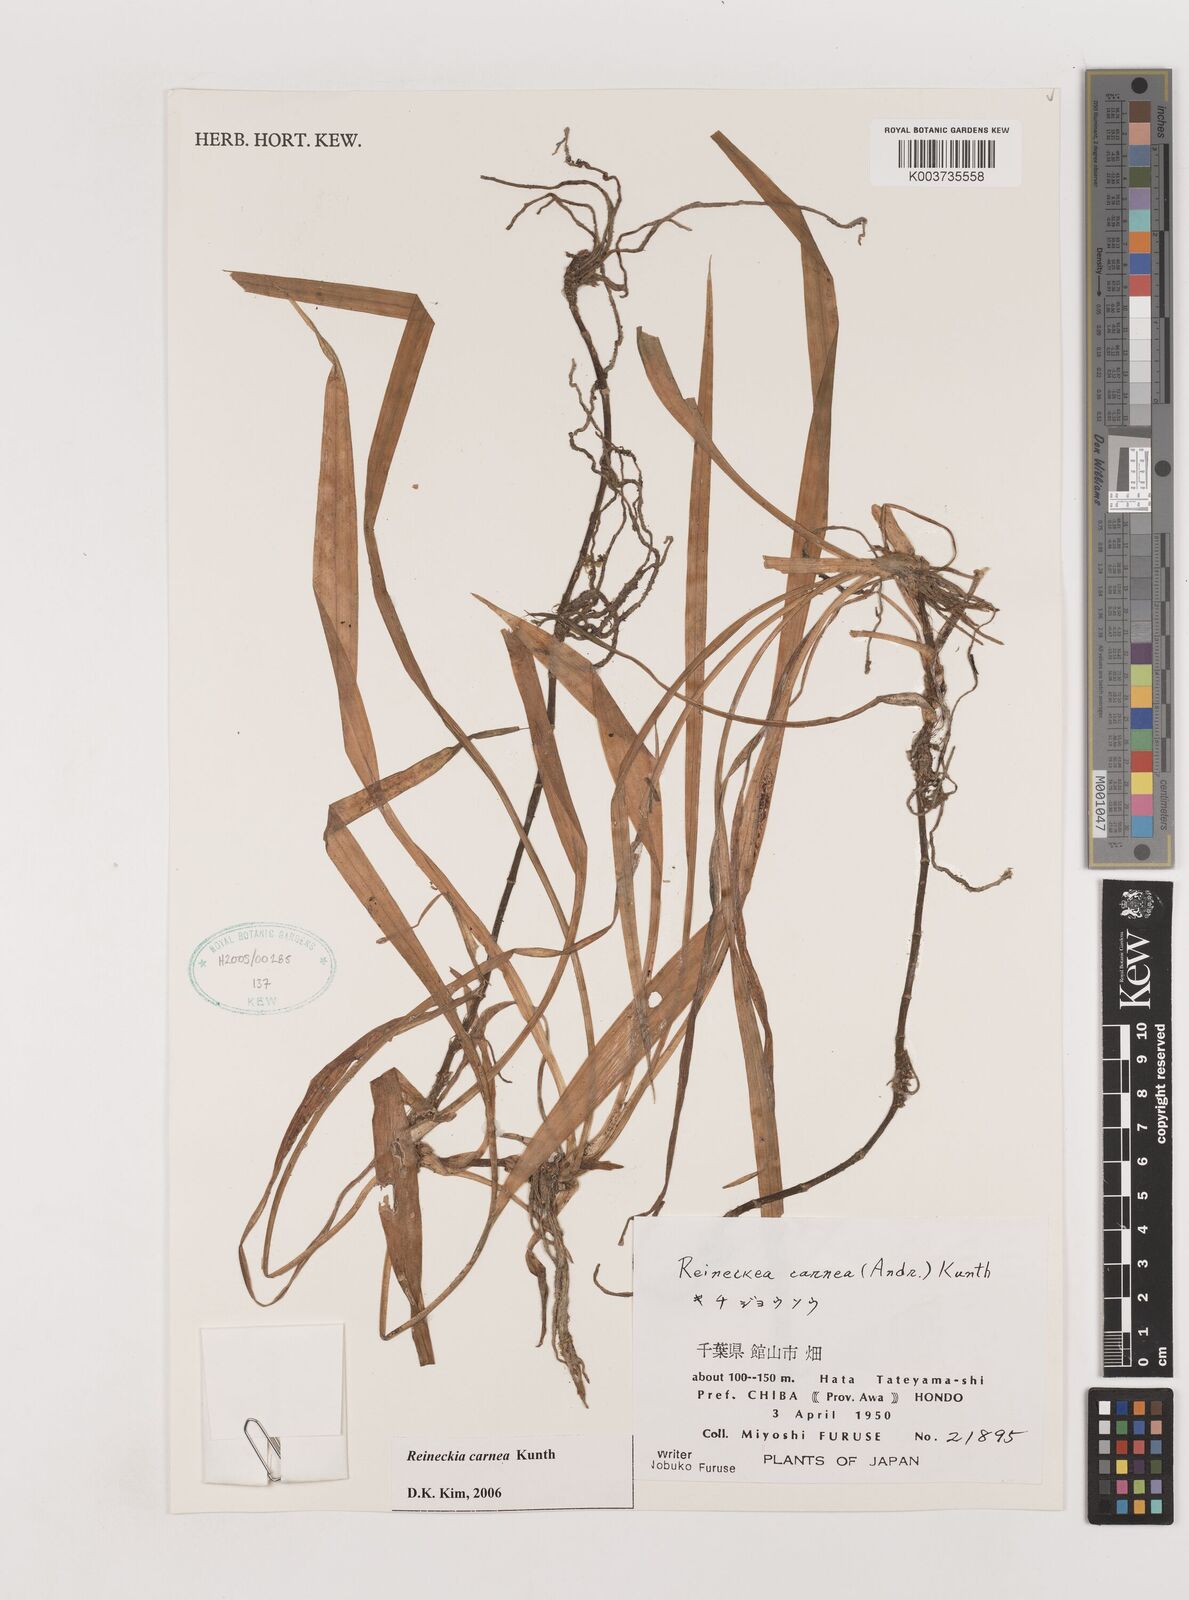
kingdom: Plantae
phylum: Tracheophyta
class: Liliopsida
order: Asparagales
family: Asparagaceae
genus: Reineckea
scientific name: Reineckea carnea
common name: Reineckea
